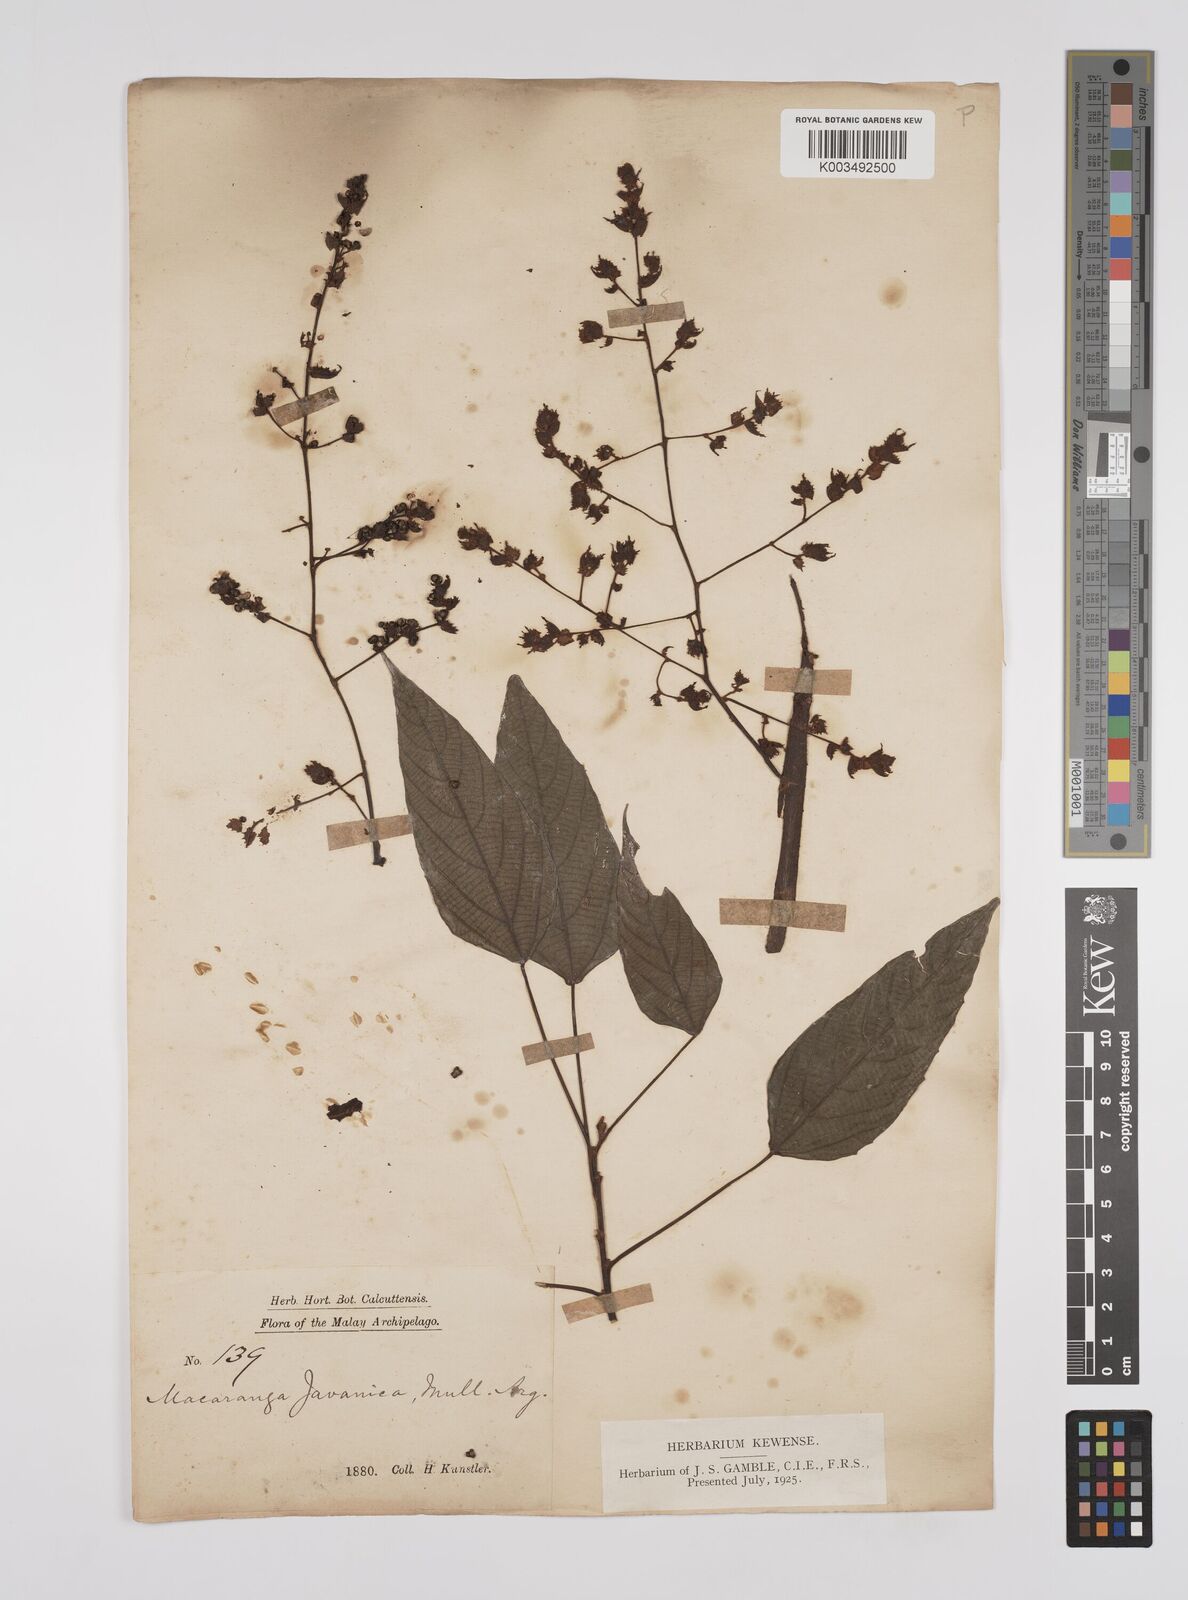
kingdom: Plantae
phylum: Tracheophyta
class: Magnoliopsida
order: Malpighiales
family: Euphorbiaceae
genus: Macaranga
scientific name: Macaranga heynei
